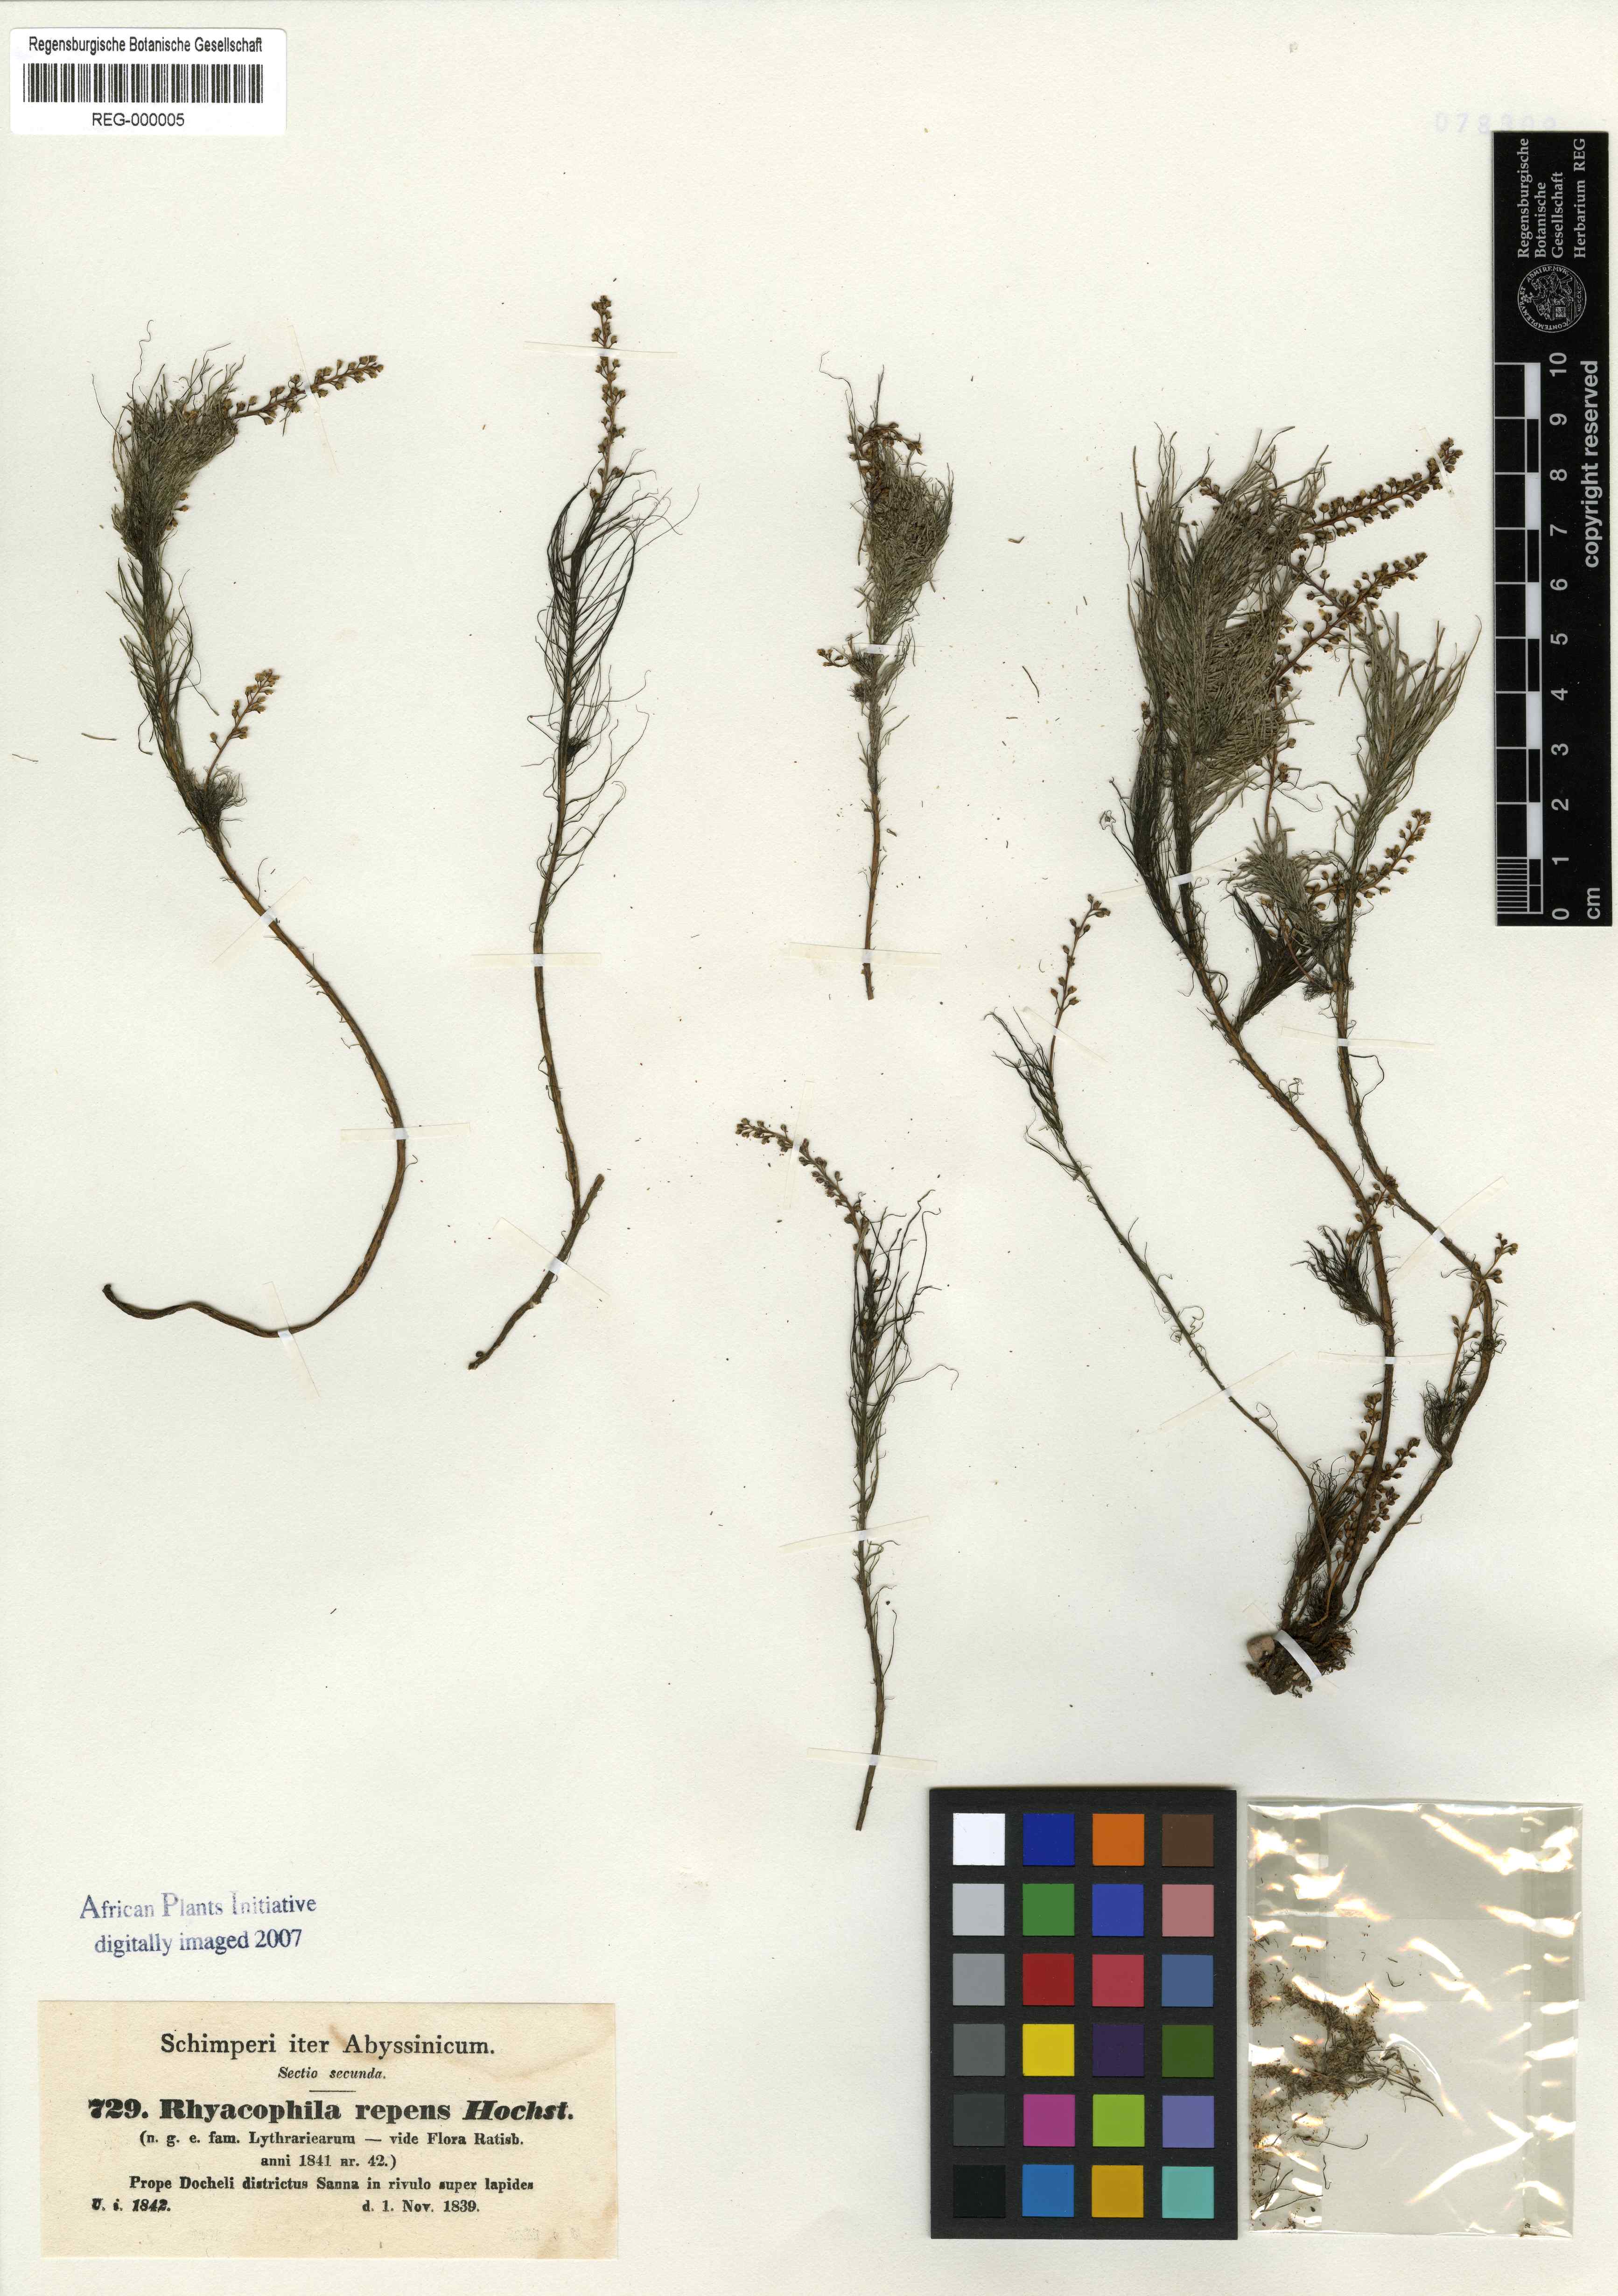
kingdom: Plantae
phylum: Tracheophyta
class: Magnoliopsida
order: Myrtales
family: Lythraceae
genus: Rotala
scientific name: Rotala repens
